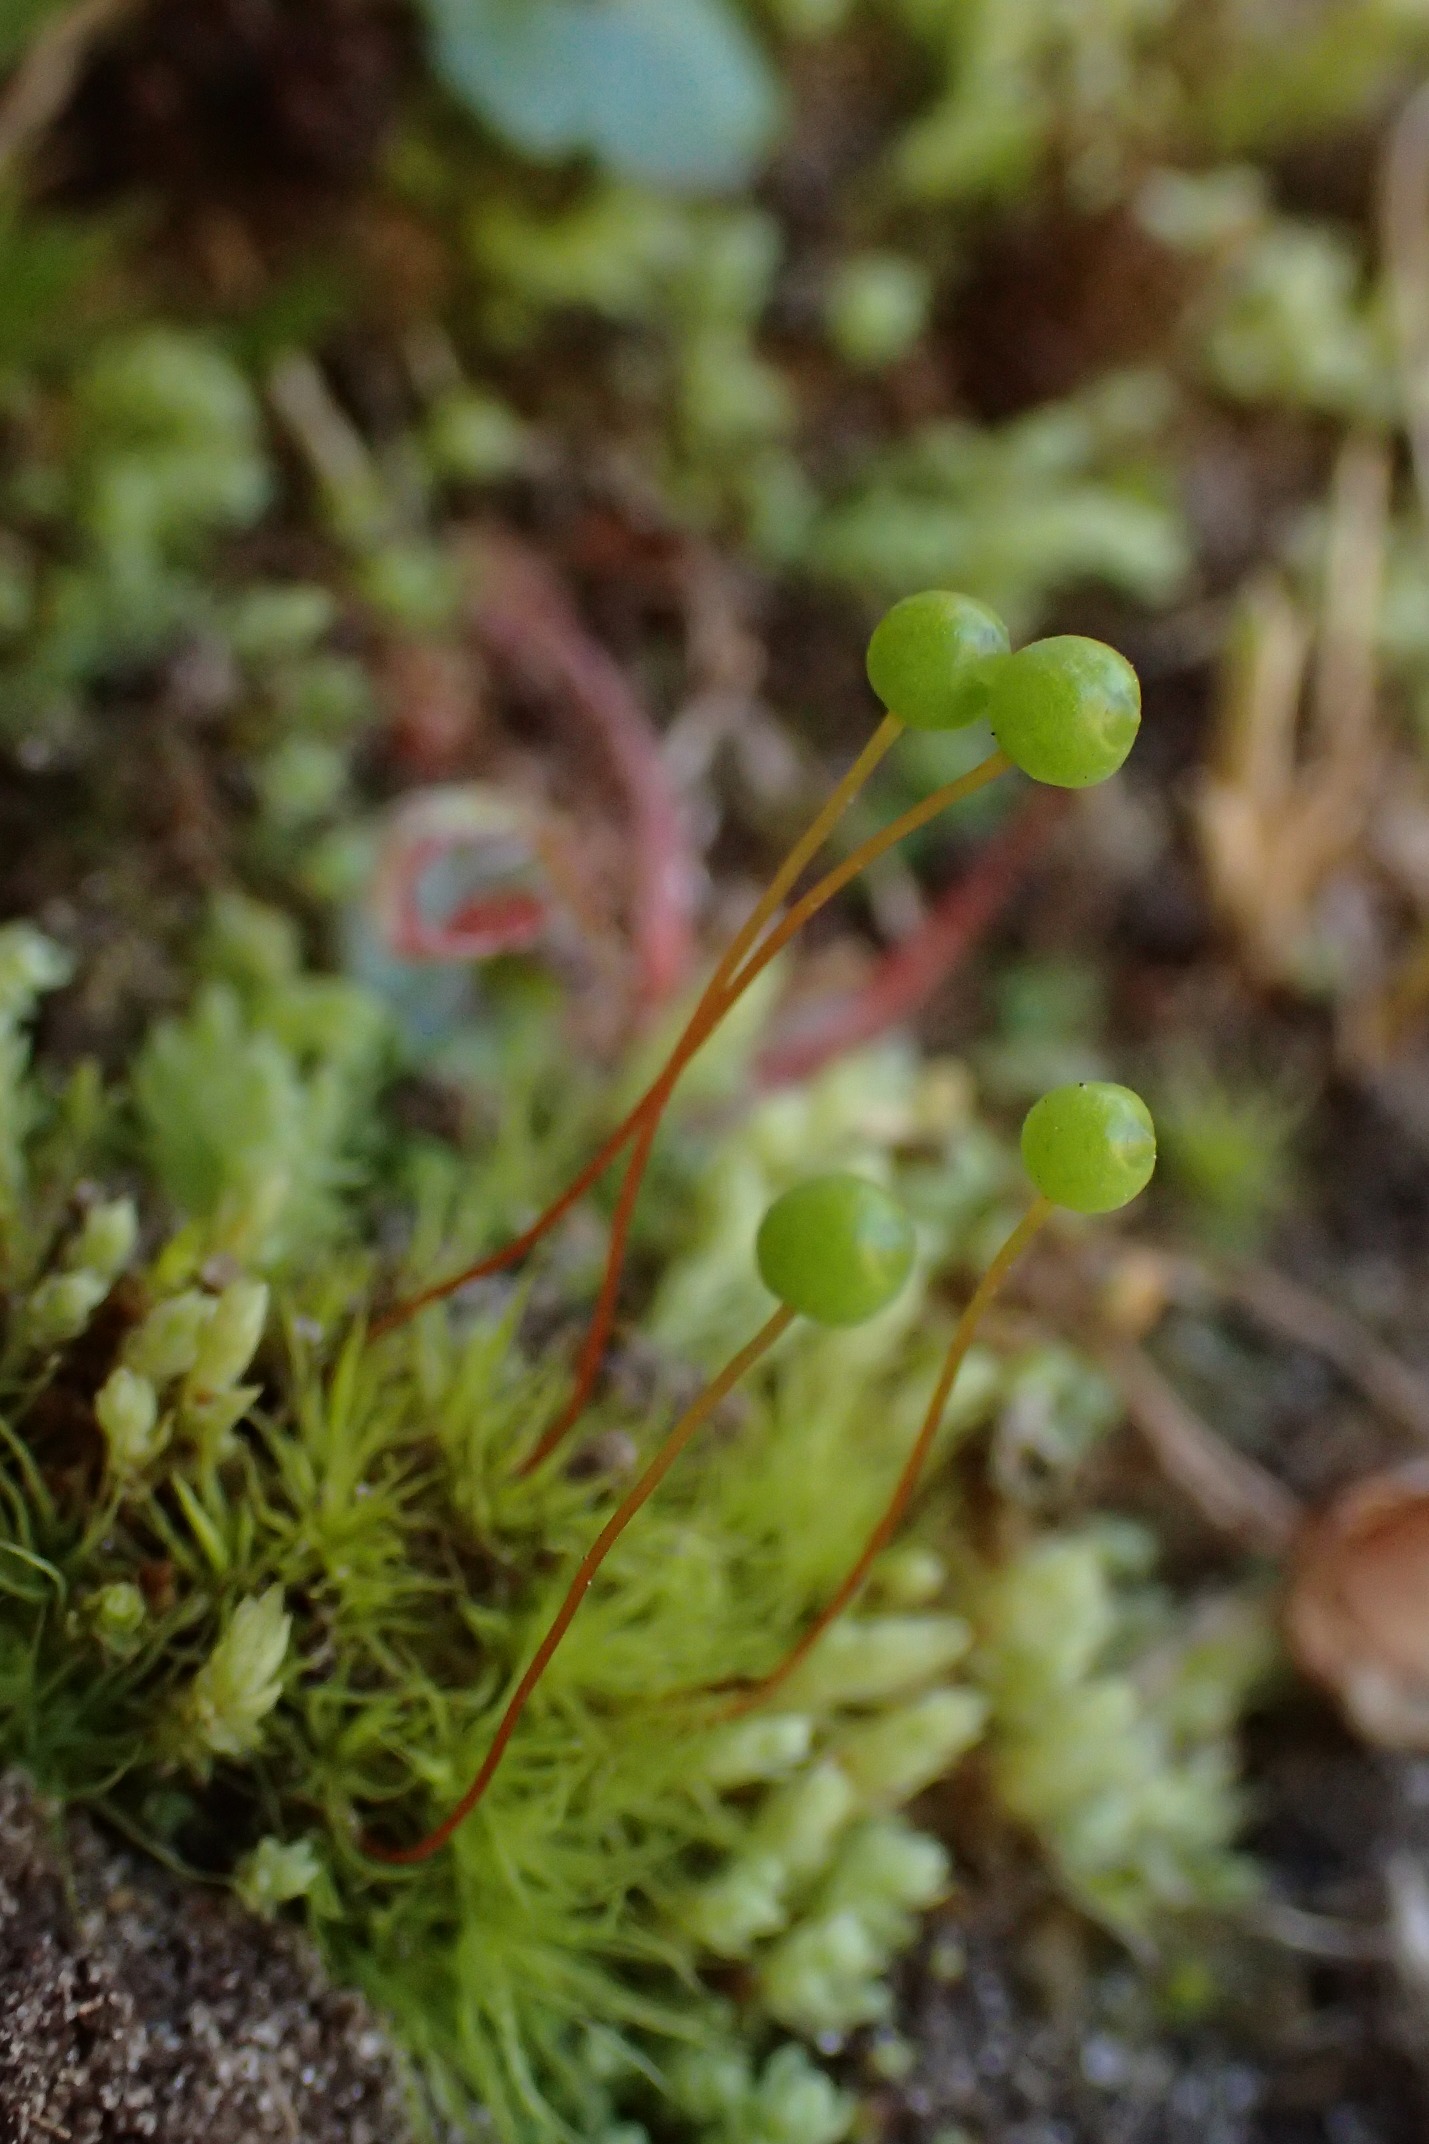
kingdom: Plantae
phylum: Bryophyta
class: Bryopsida
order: Bartramiales
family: Bartramiaceae
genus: Bartramia
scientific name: Bartramia ithyphylla
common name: Blågrøn kuglekapsel
